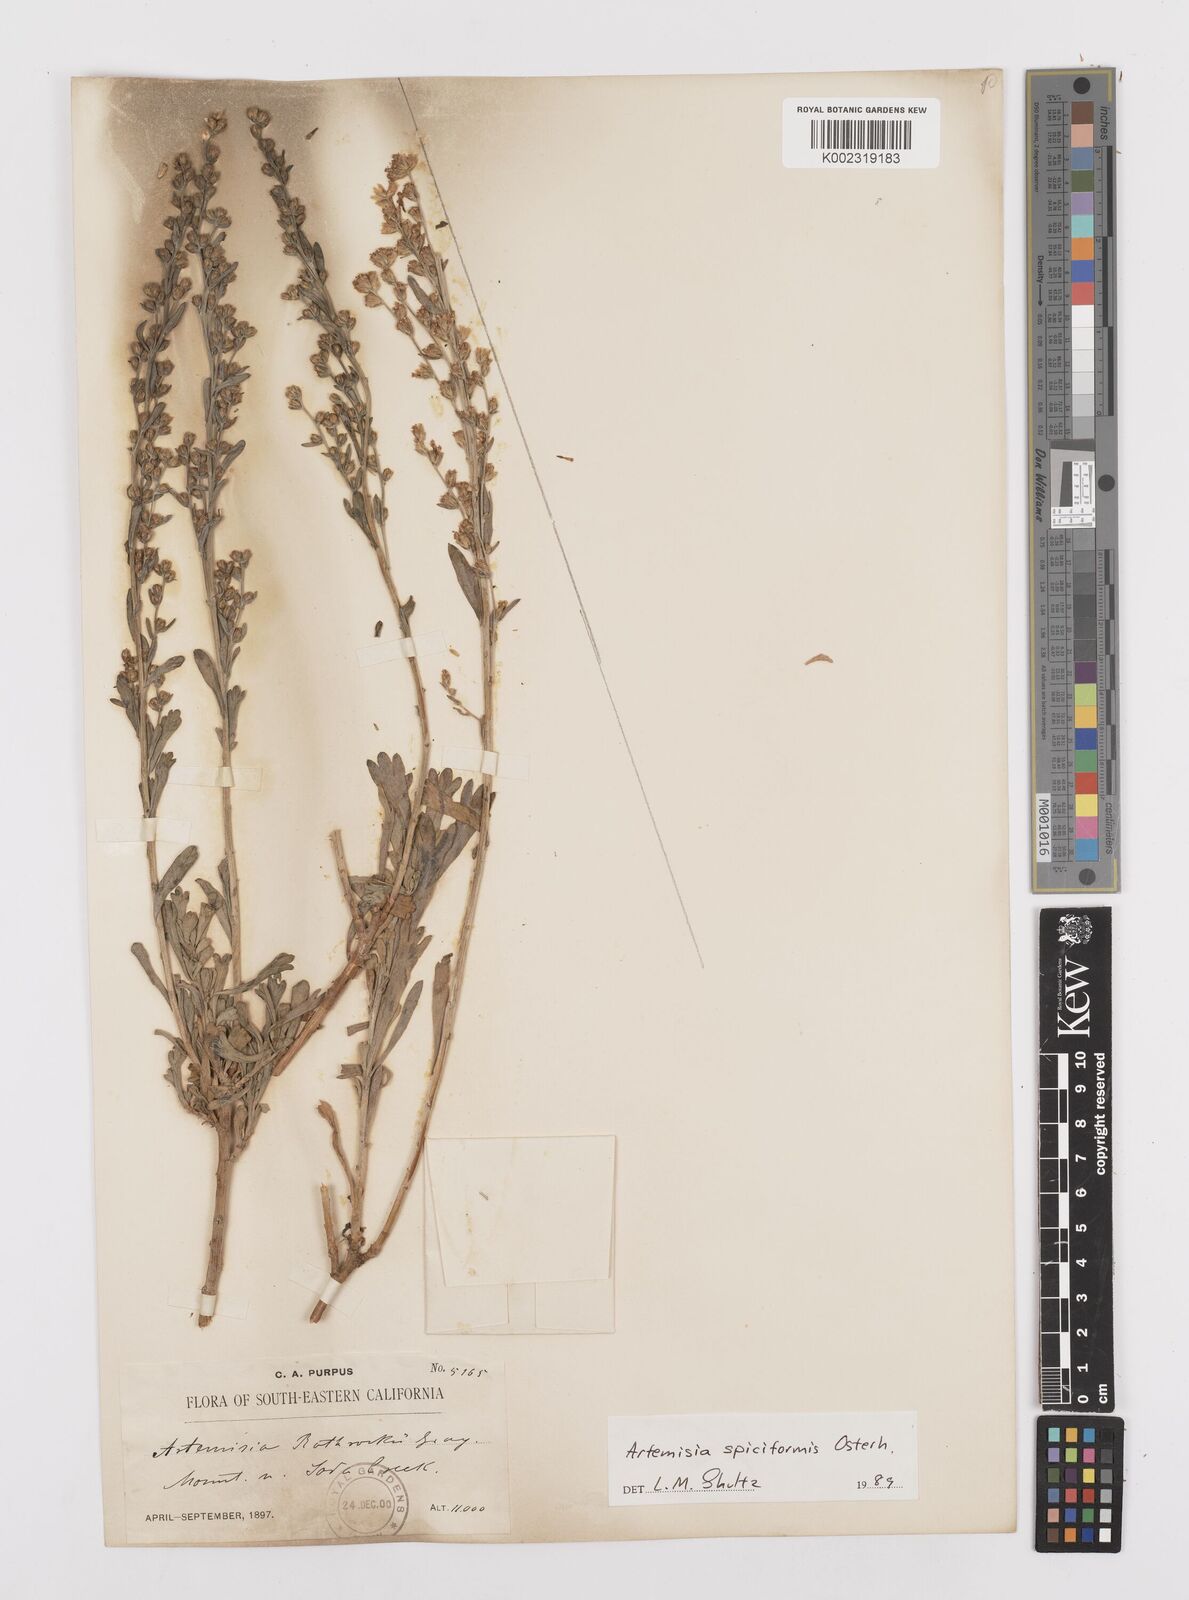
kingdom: Plantae
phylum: Tracheophyta
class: Magnoliopsida
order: Asterales
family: Asteraceae
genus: Artemisia
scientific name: Artemisia spiciformis
